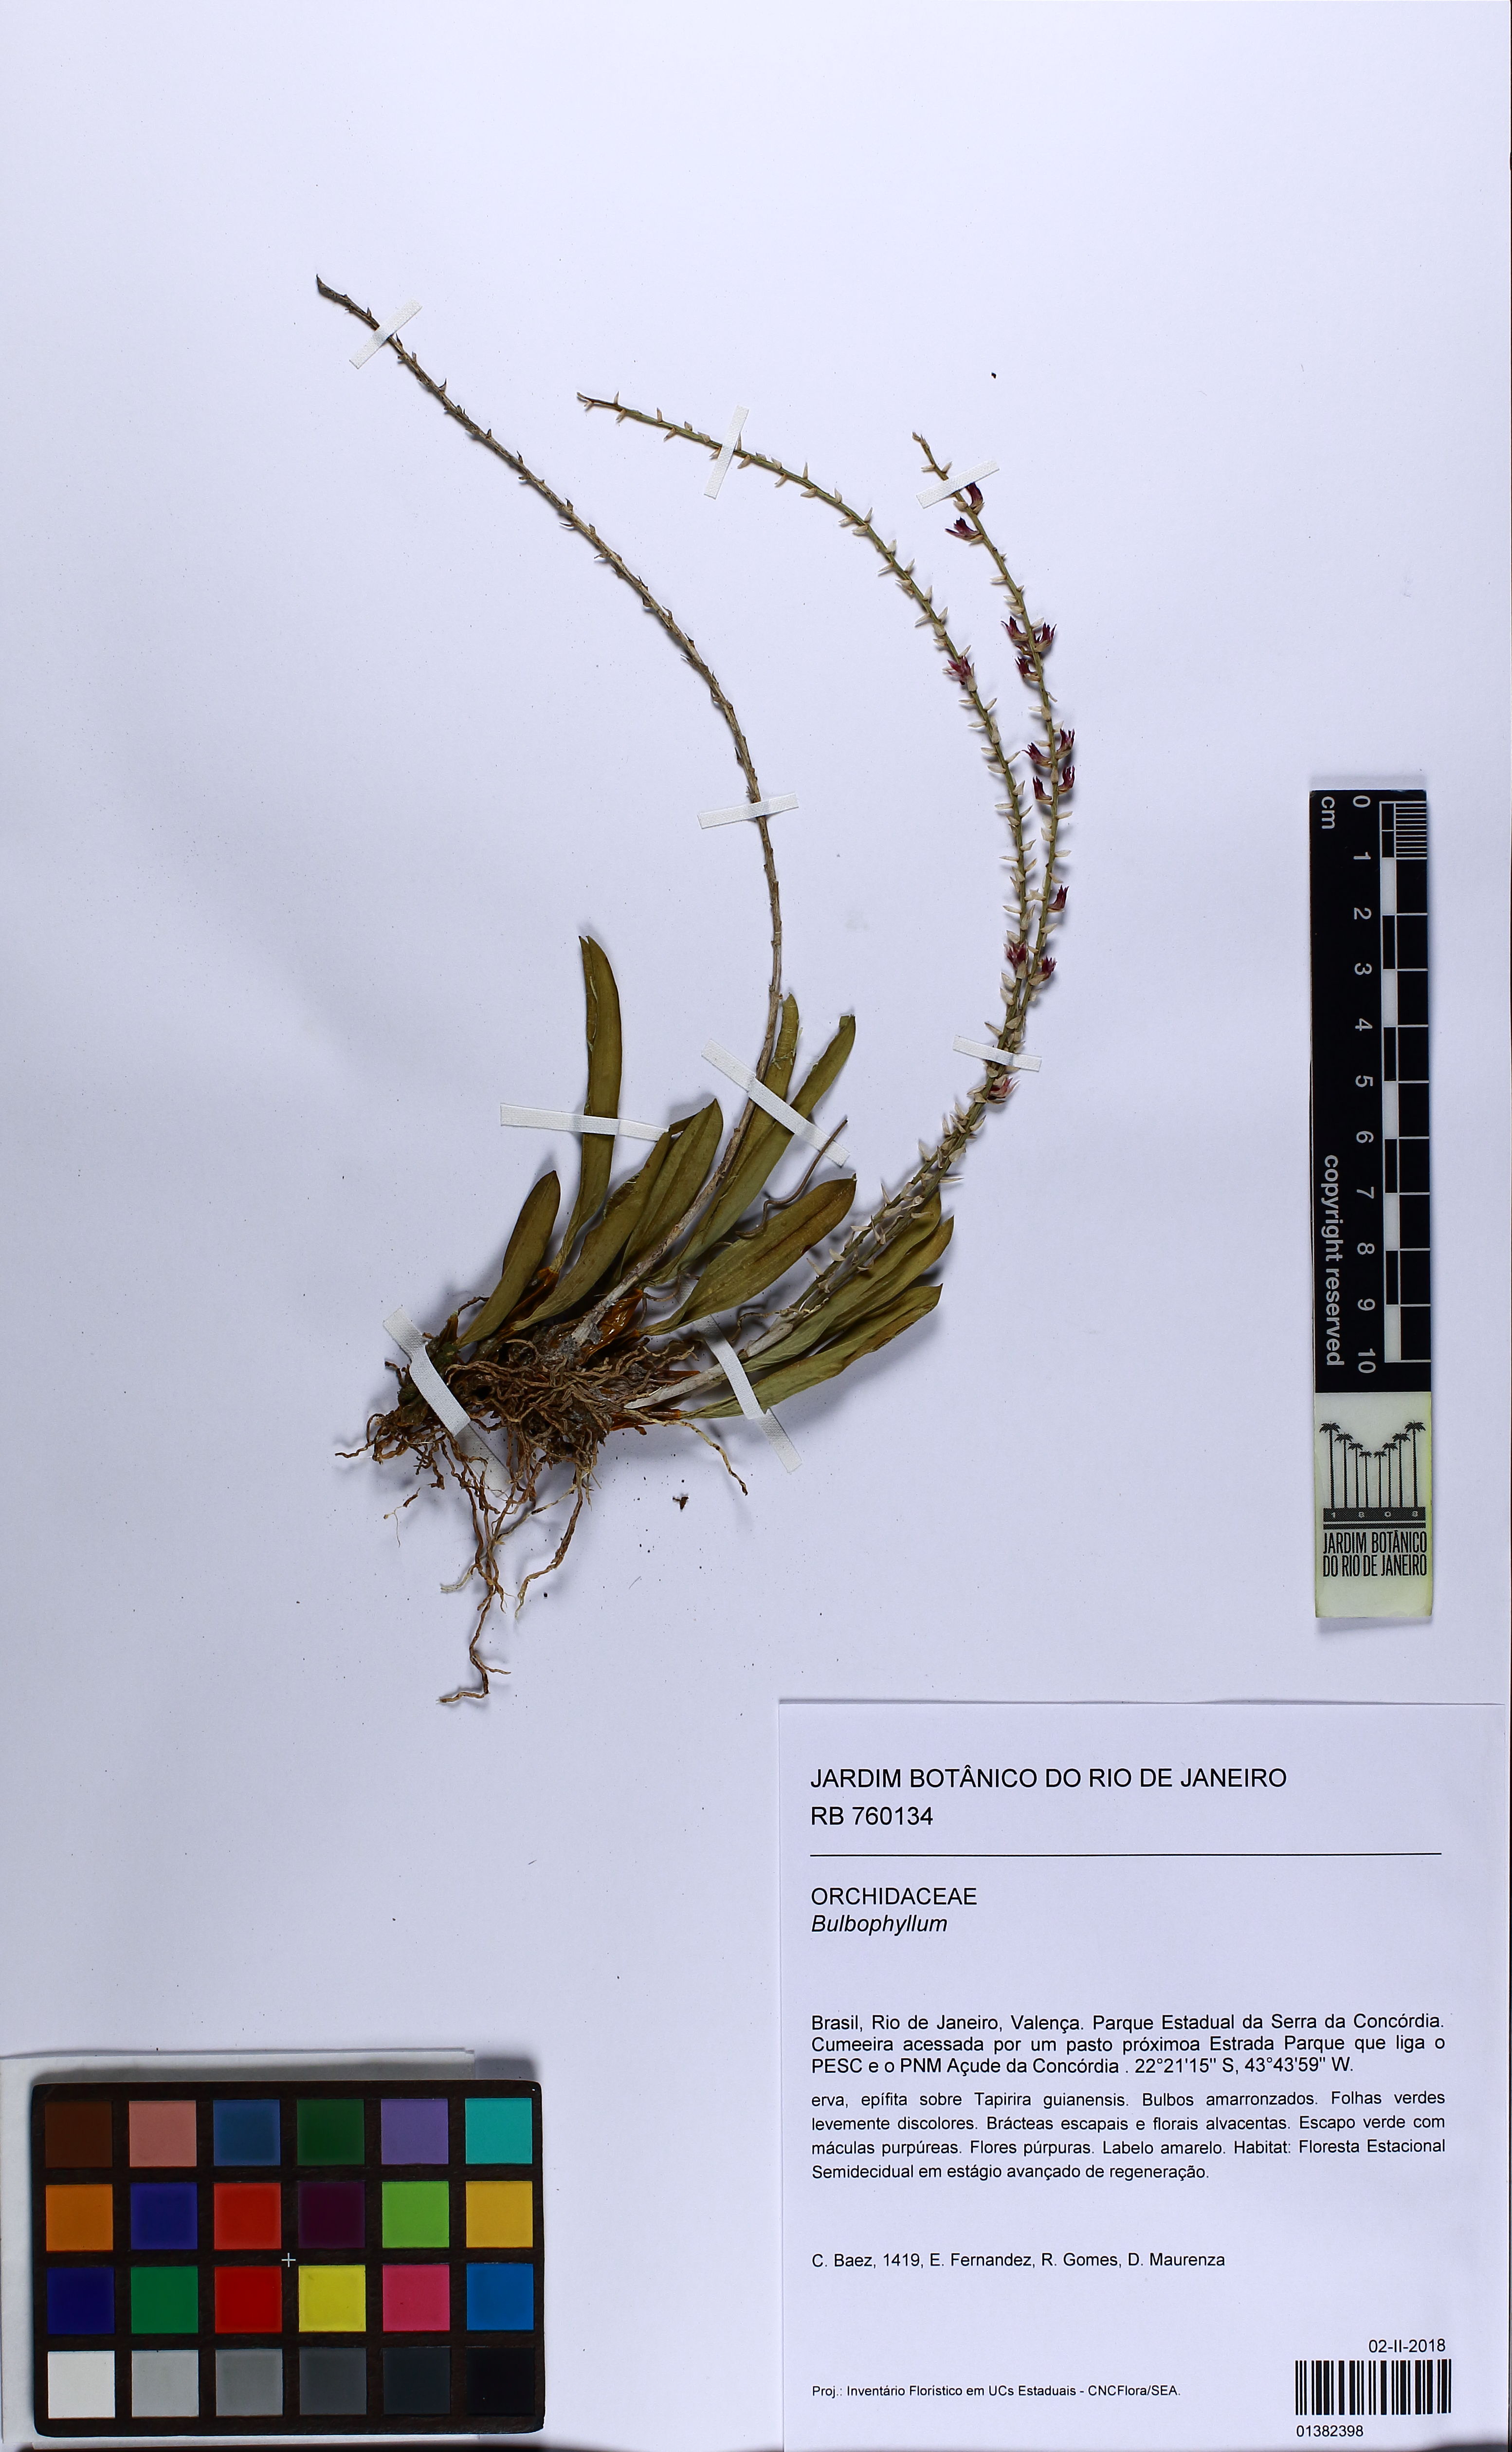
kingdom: Plantae
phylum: Tracheophyta
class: Liliopsida
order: Asparagales
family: Orchidaceae
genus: Bulbophyllum
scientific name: Bulbophyllum chloroglossum
